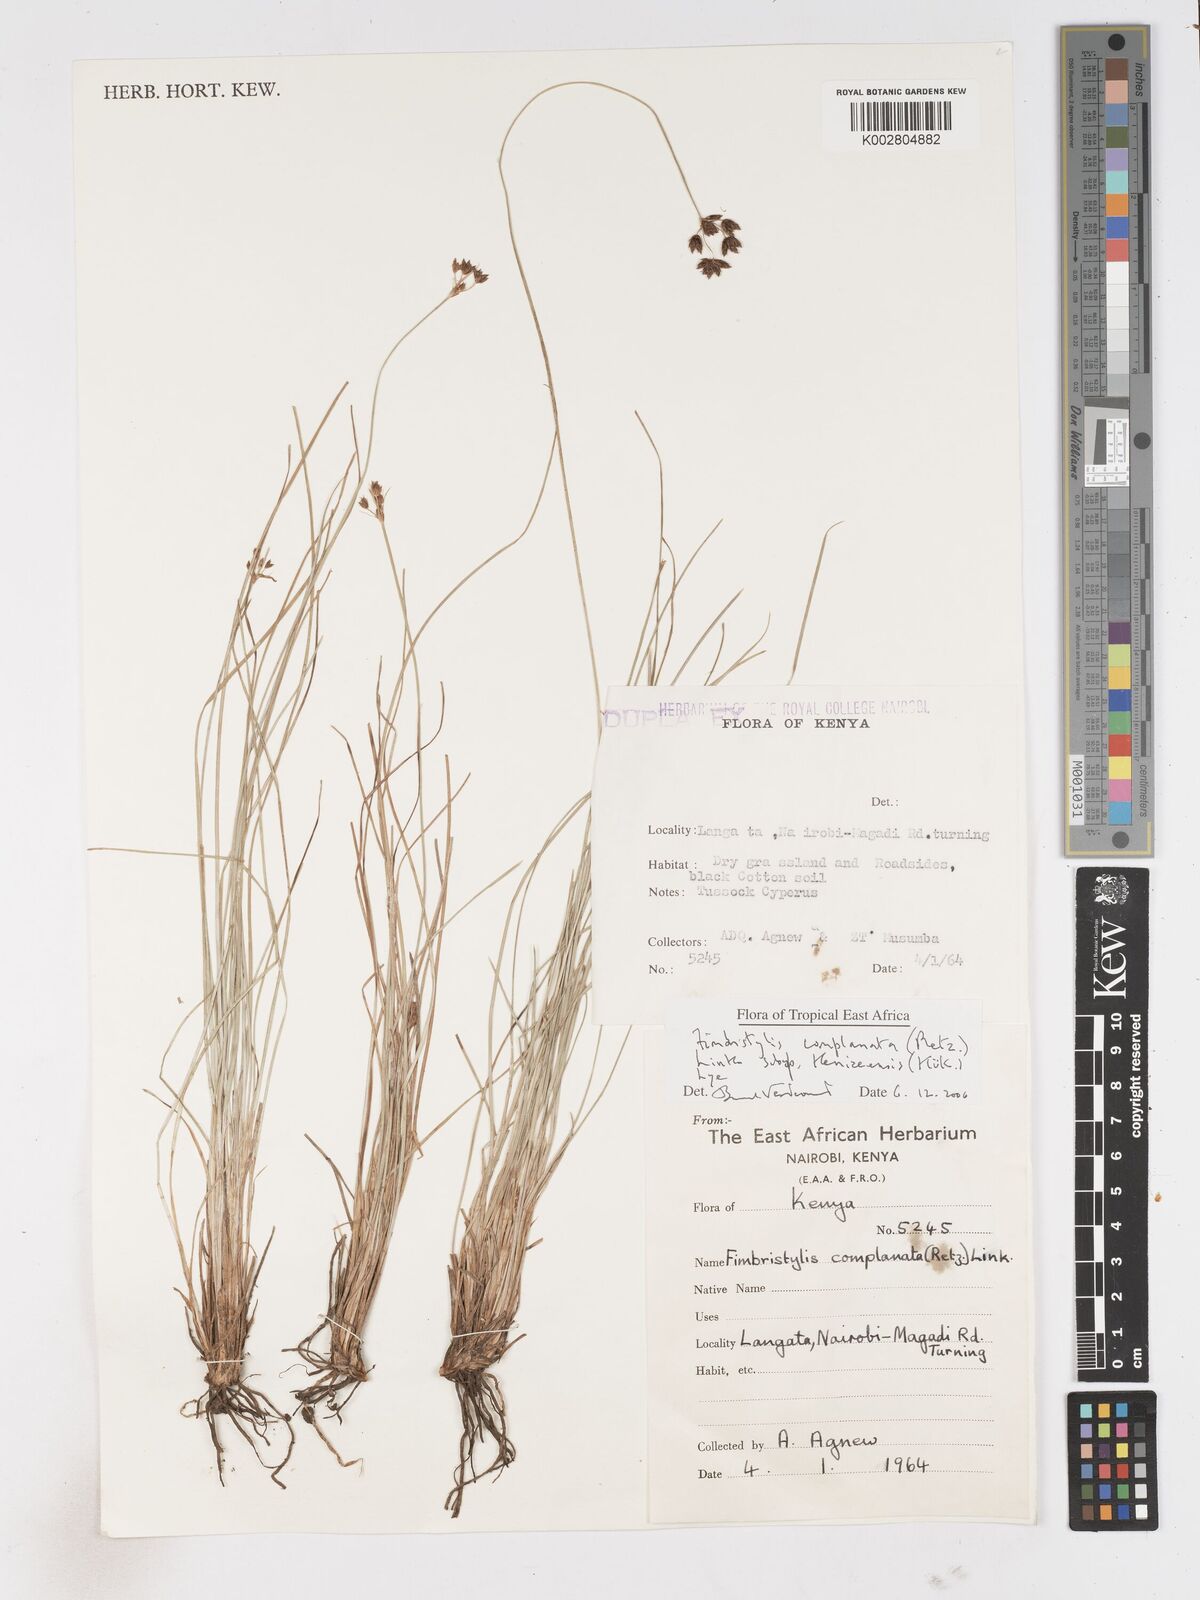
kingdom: Plantae
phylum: Tracheophyta
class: Liliopsida
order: Poales
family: Cyperaceae
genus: Fimbristylis
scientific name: Fimbristylis complanata
